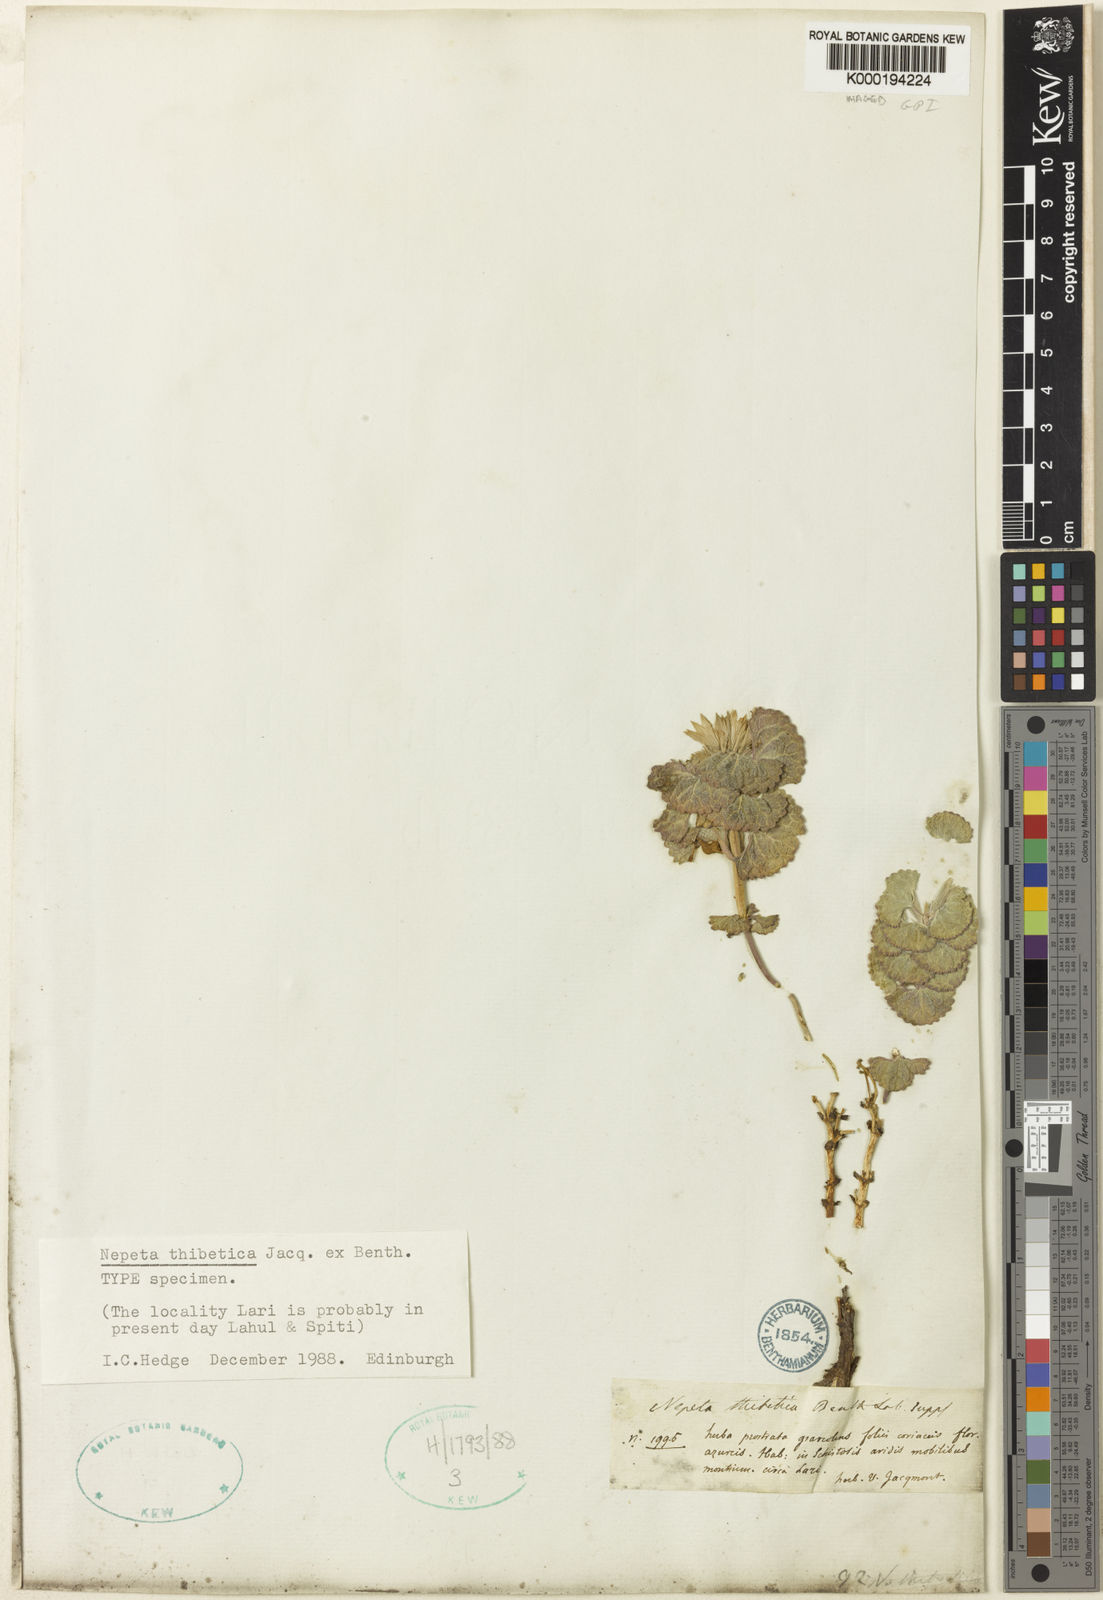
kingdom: Plantae
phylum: Tracheophyta
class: Magnoliopsida
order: Lamiales
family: Lamiaceae
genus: Nepeta
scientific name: Nepeta rotundifolia
